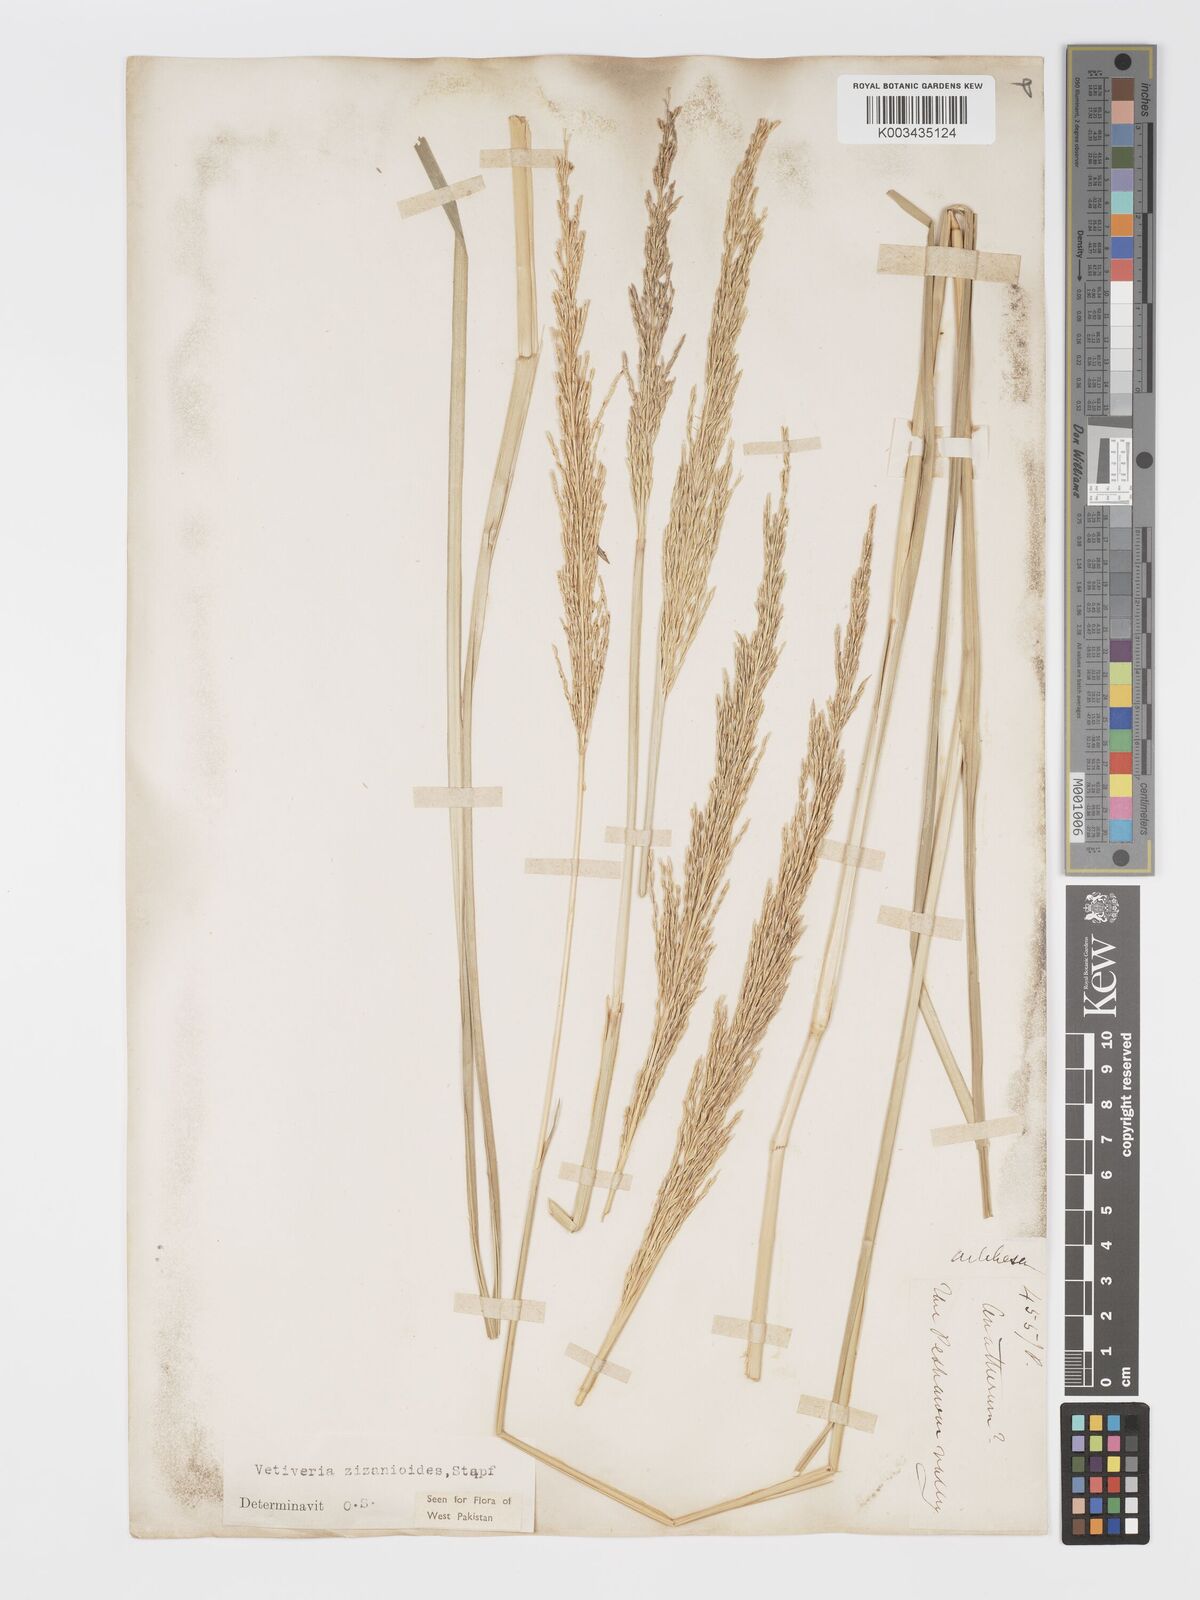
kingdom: Plantae
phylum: Tracheophyta
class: Liliopsida
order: Poales
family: Poaceae
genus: Chrysopogon
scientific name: Chrysopogon zizanioides
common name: False beardgrass
